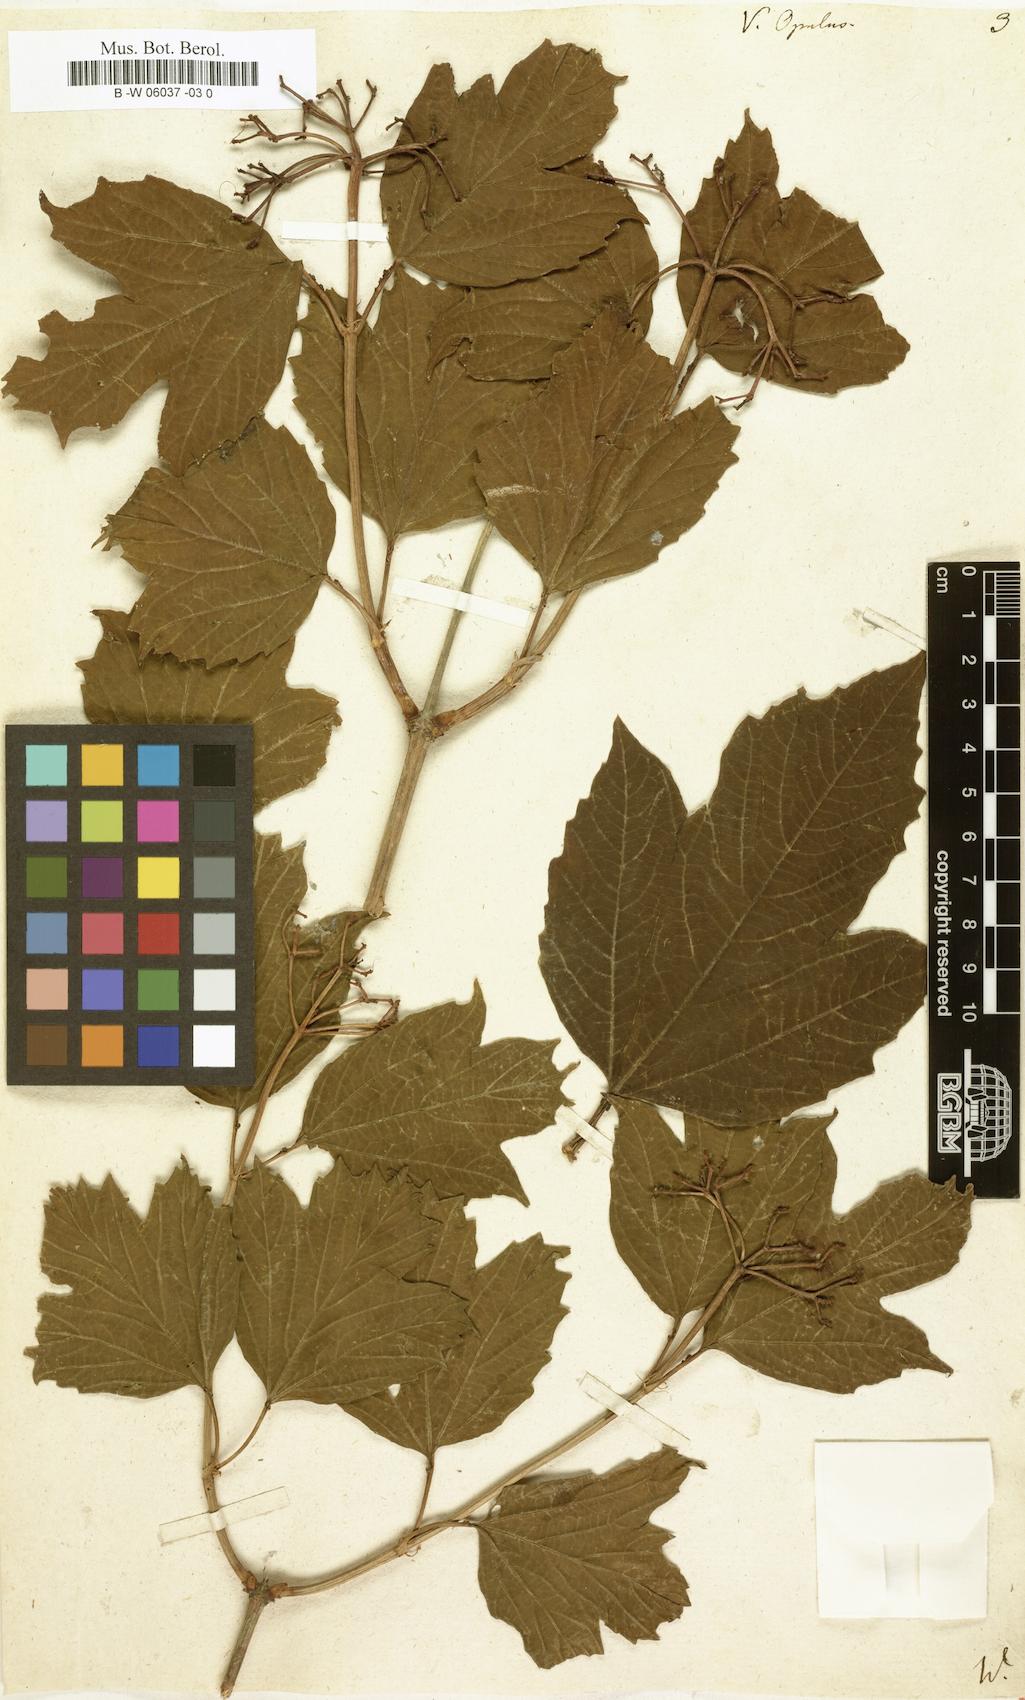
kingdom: Plantae
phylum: Tracheophyta
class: Magnoliopsida
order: Dipsacales
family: Viburnaceae
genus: Viburnum
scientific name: Viburnum opulus
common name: Guelder-rose
